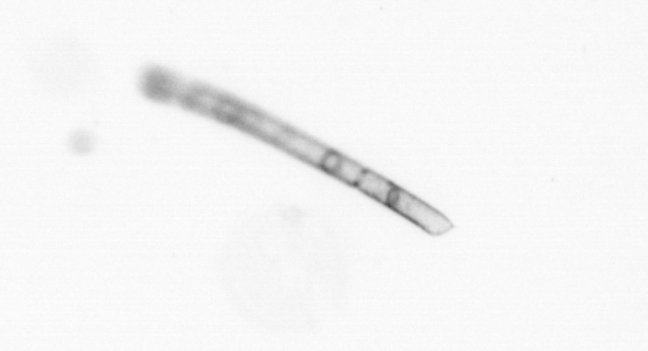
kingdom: Chromista
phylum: Ochrophyta
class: Bacillariophyceae
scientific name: Bacillariophyceae
